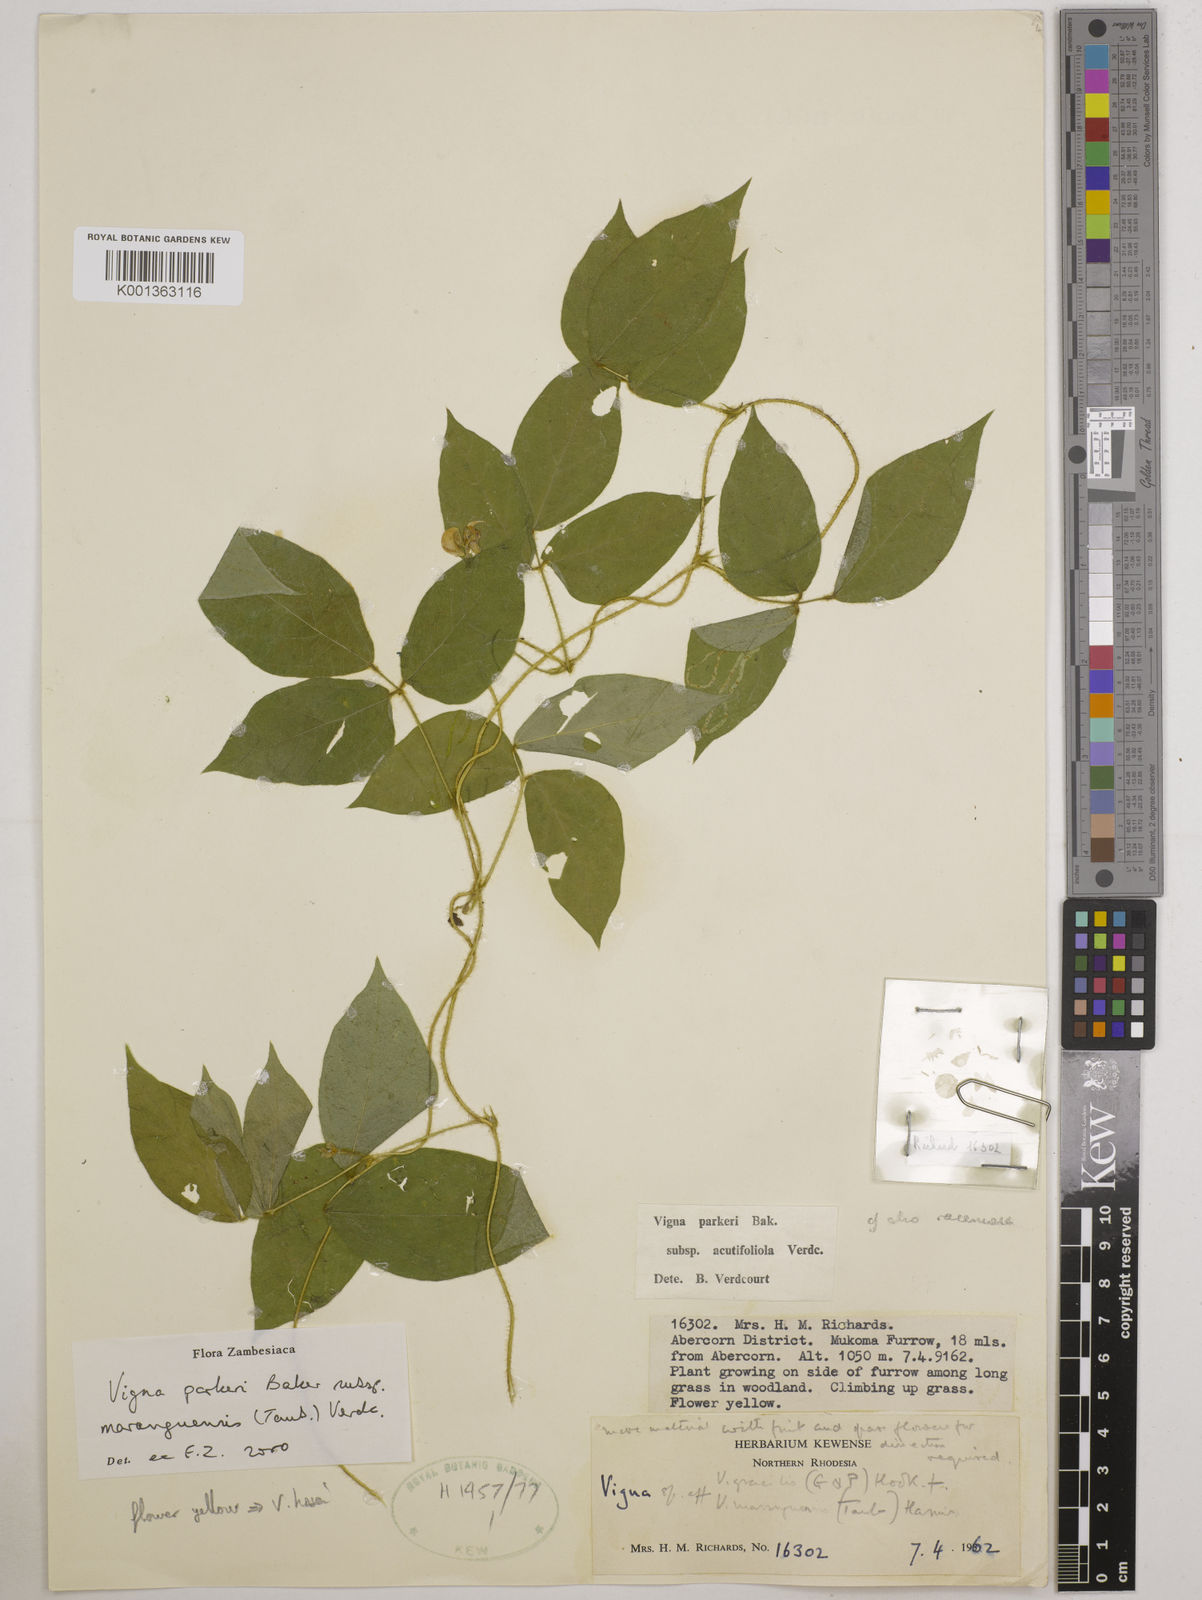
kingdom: Plantae
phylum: Tracheophyta
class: Magnoliopsida
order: Fabales
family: Fabaceae
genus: Vigna
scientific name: Vigna
